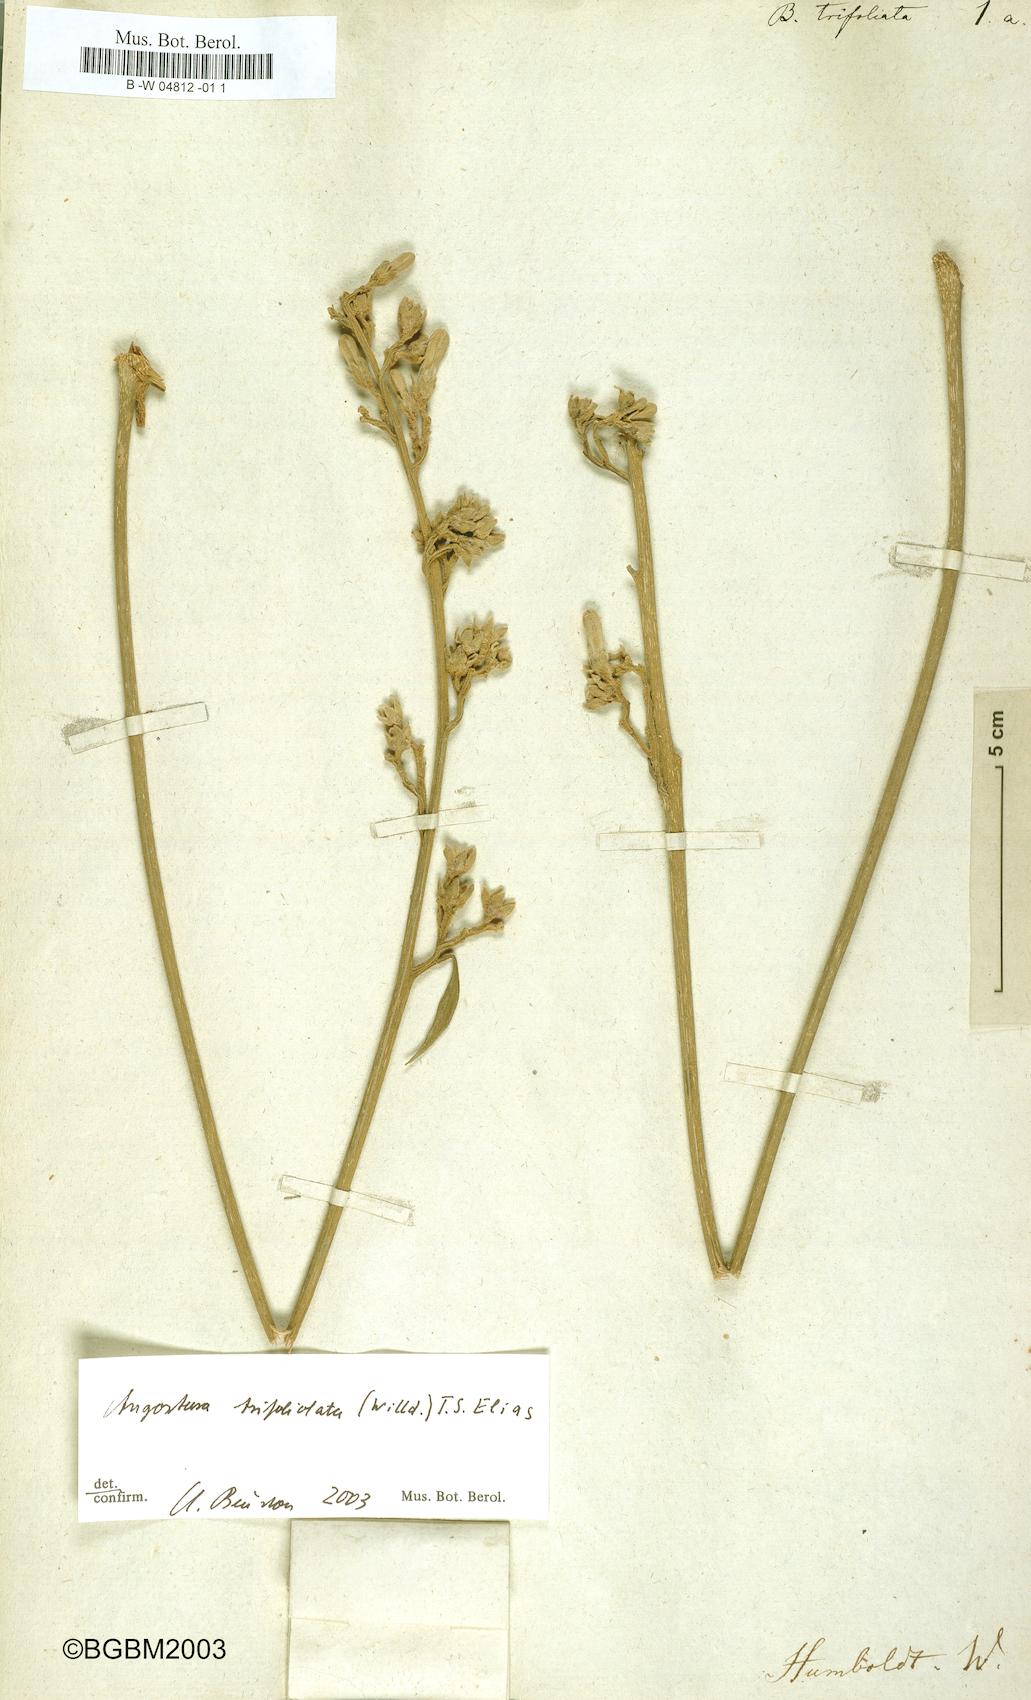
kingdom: Plantae
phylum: Tracheophyta
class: Magnoliopsida
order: Sapindales
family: Rutaceae
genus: Angostura
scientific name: Angostura trifoliata
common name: Angostura
